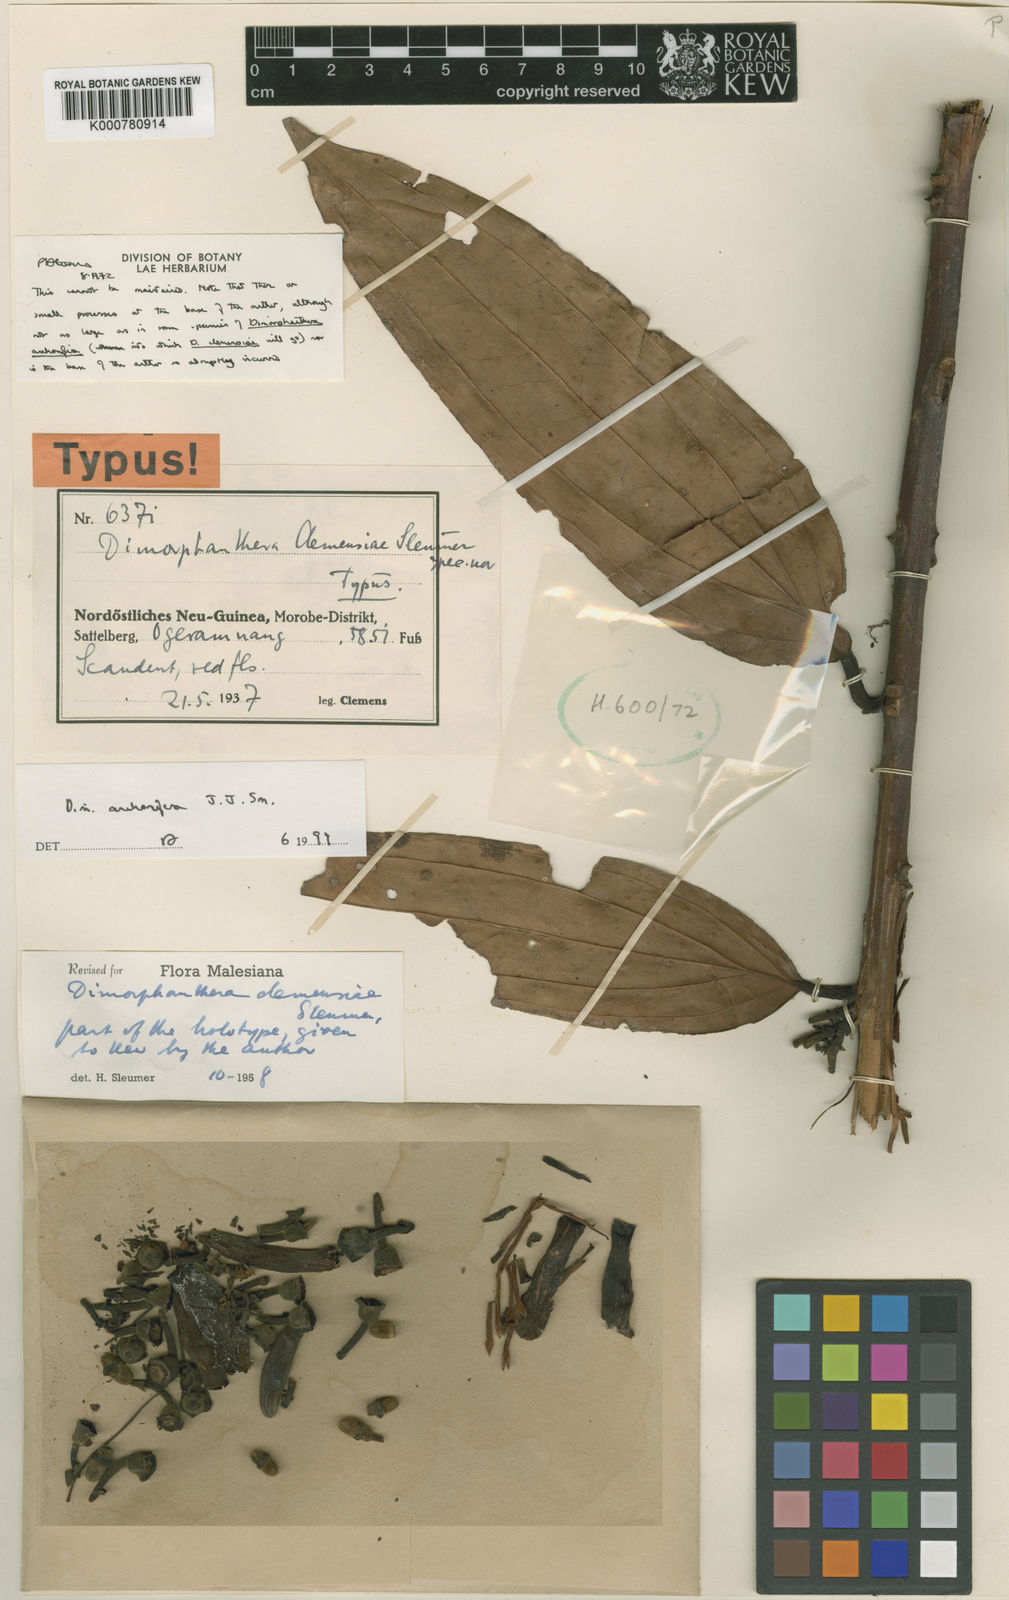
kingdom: Plantae
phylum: Tracheophyta
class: Magnoliopsida
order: Ericales
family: Ericaceae
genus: Dimorphanthera
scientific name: Dimorphanthera anchorifera
